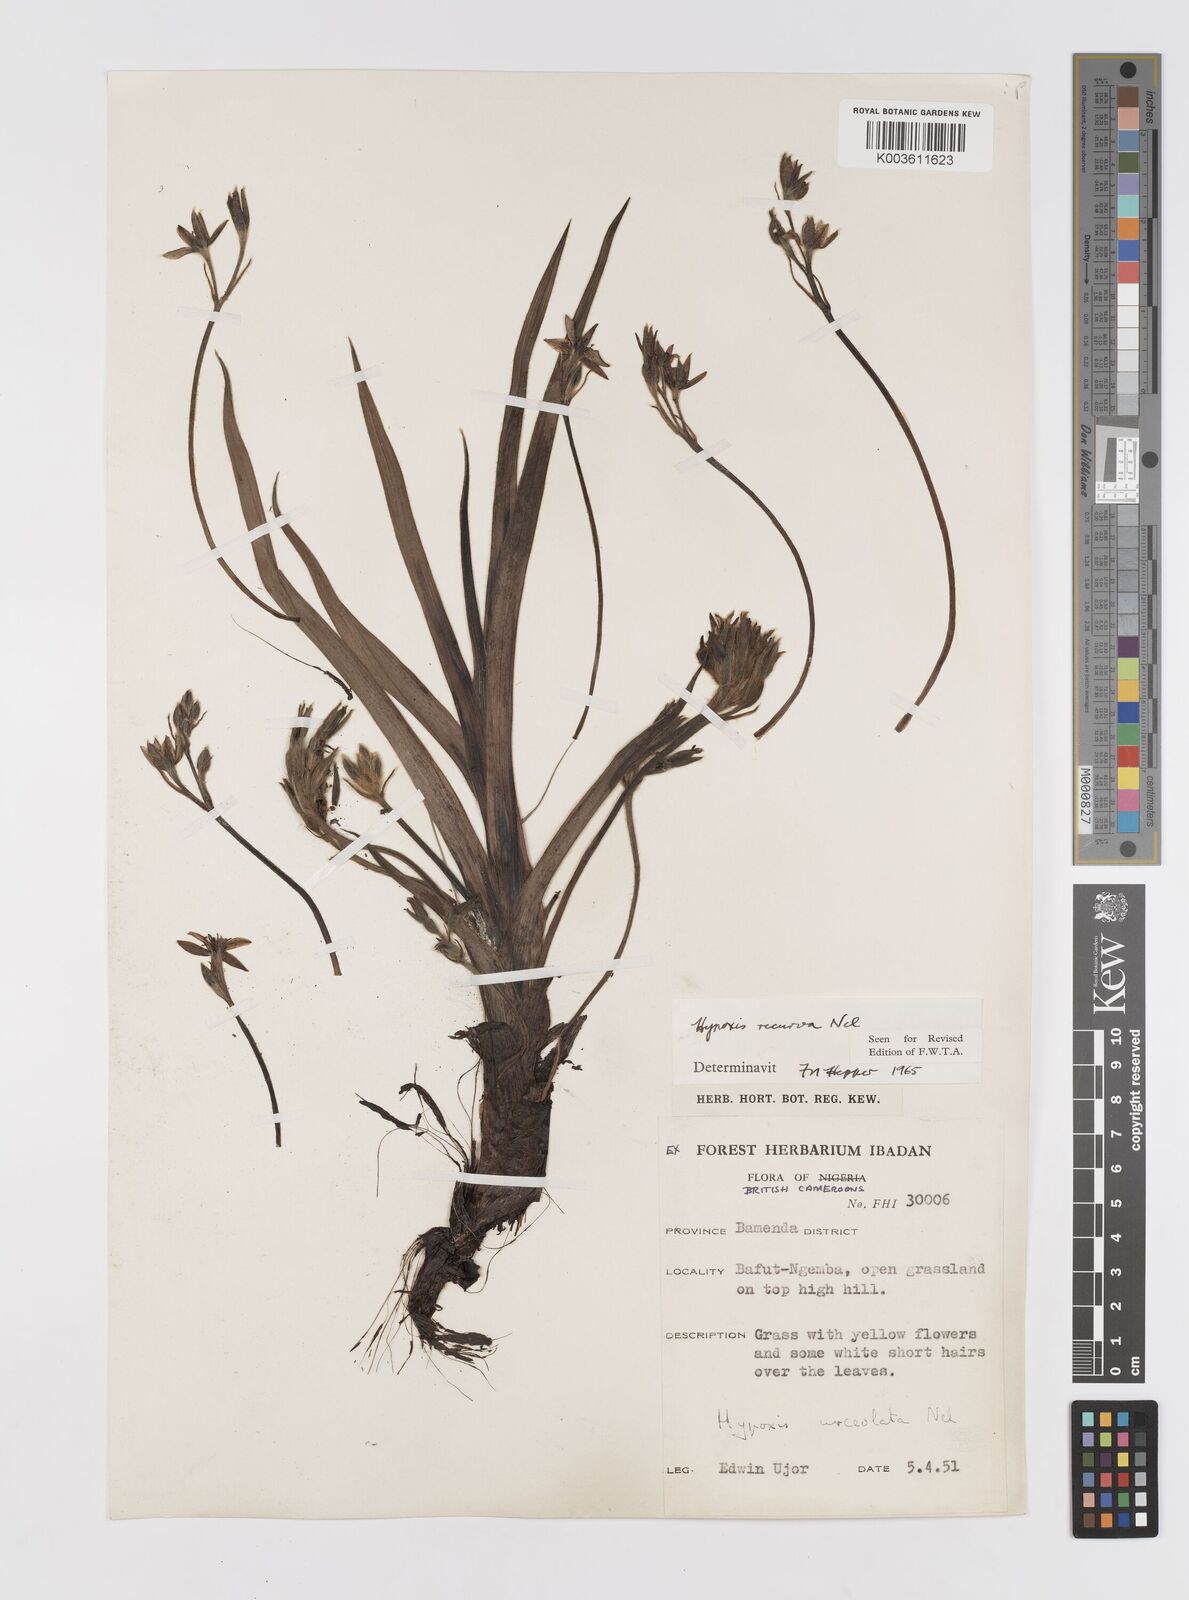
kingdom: Plantae
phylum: Tracheophyta
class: Liliopsida
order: Asparagales
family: Hypoxidaceae
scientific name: Hypoxidaceae
